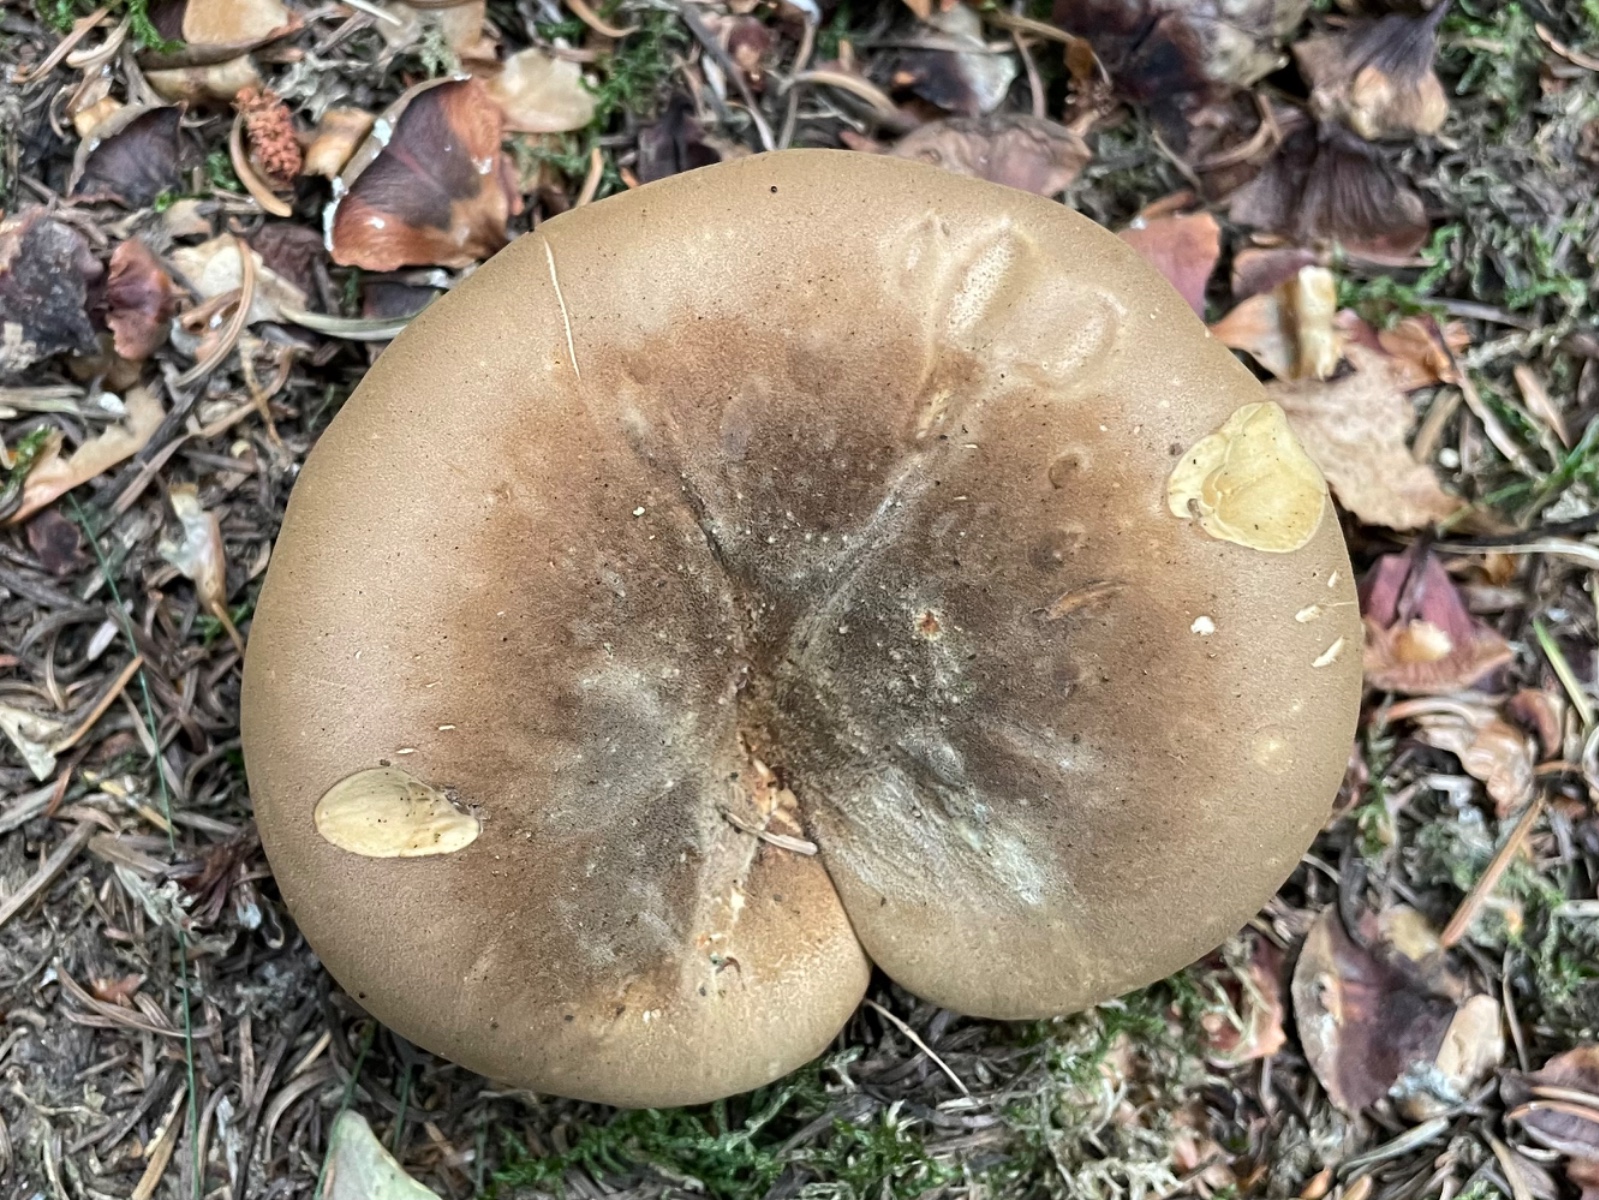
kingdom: Fungi
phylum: Basidiomycota
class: Agaricomycetes
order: Boletales
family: Tapinellaceae
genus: Tapinella
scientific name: Tapinella atrotomentosa
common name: sortfiltet viftesvamp
